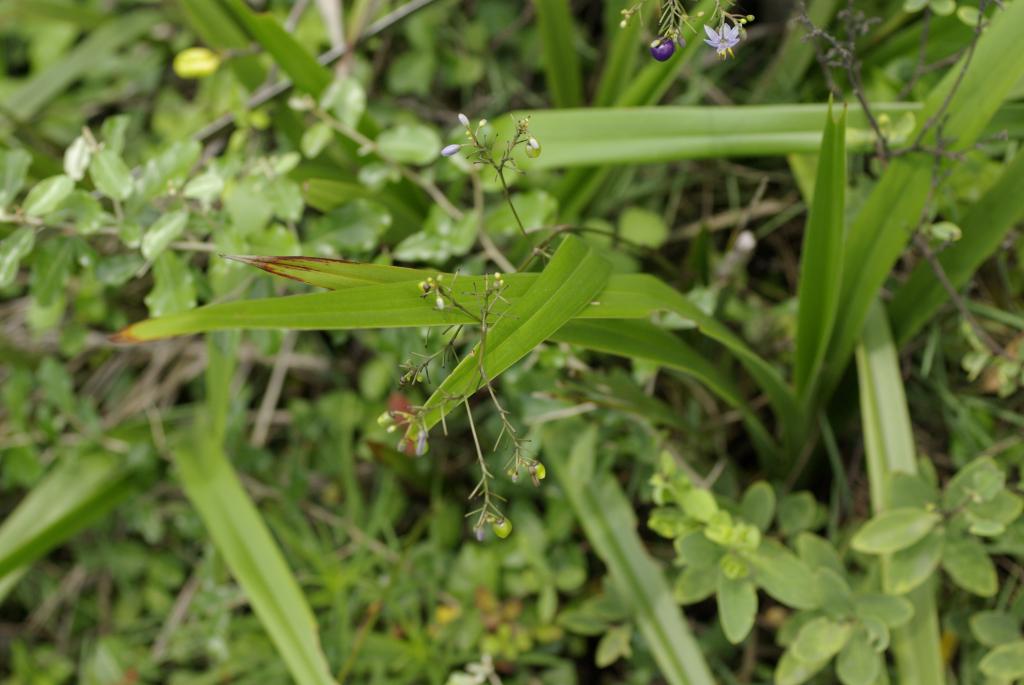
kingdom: Plantae
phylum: Tracheophyta
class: Liliopsida
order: Asparagales
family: Asphodelaceae
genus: Dianella
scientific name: Dianella ensifolia
